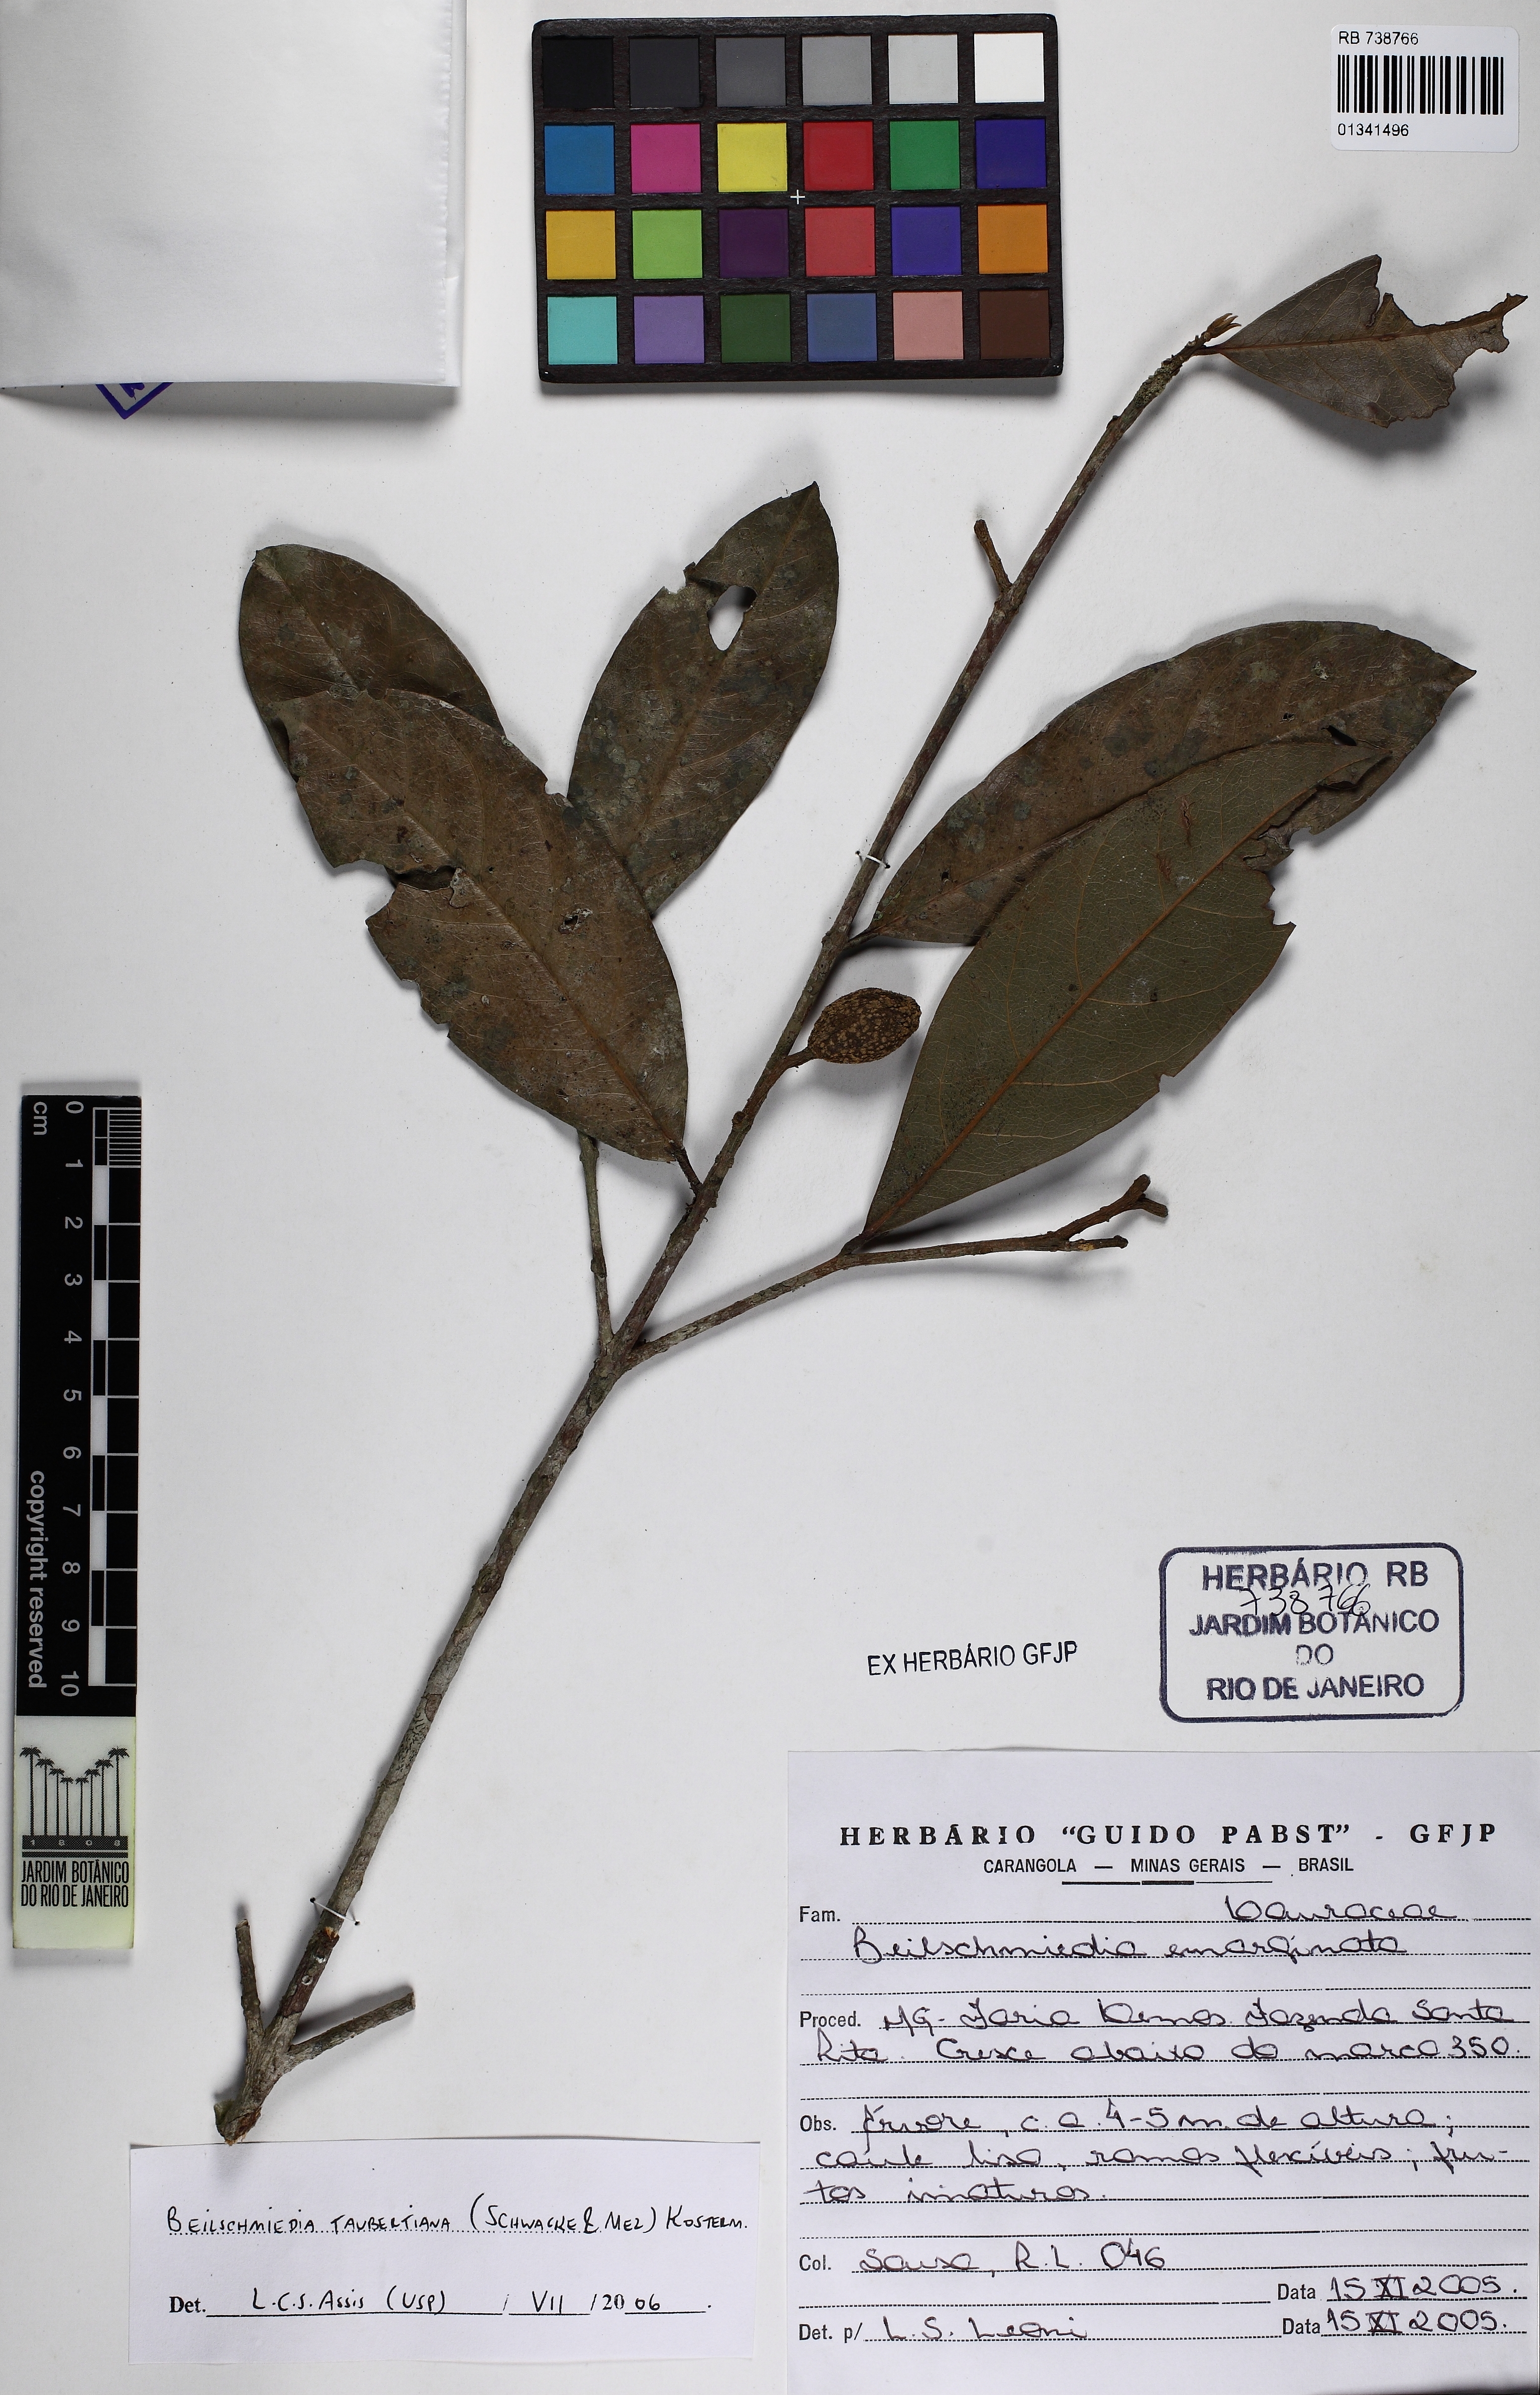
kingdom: Plantae
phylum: Tracheophyta
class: Magnoliopsida
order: Laurales
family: Lauraceae
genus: Beilschmiedia
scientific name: Beilschmiedia taubertiana
